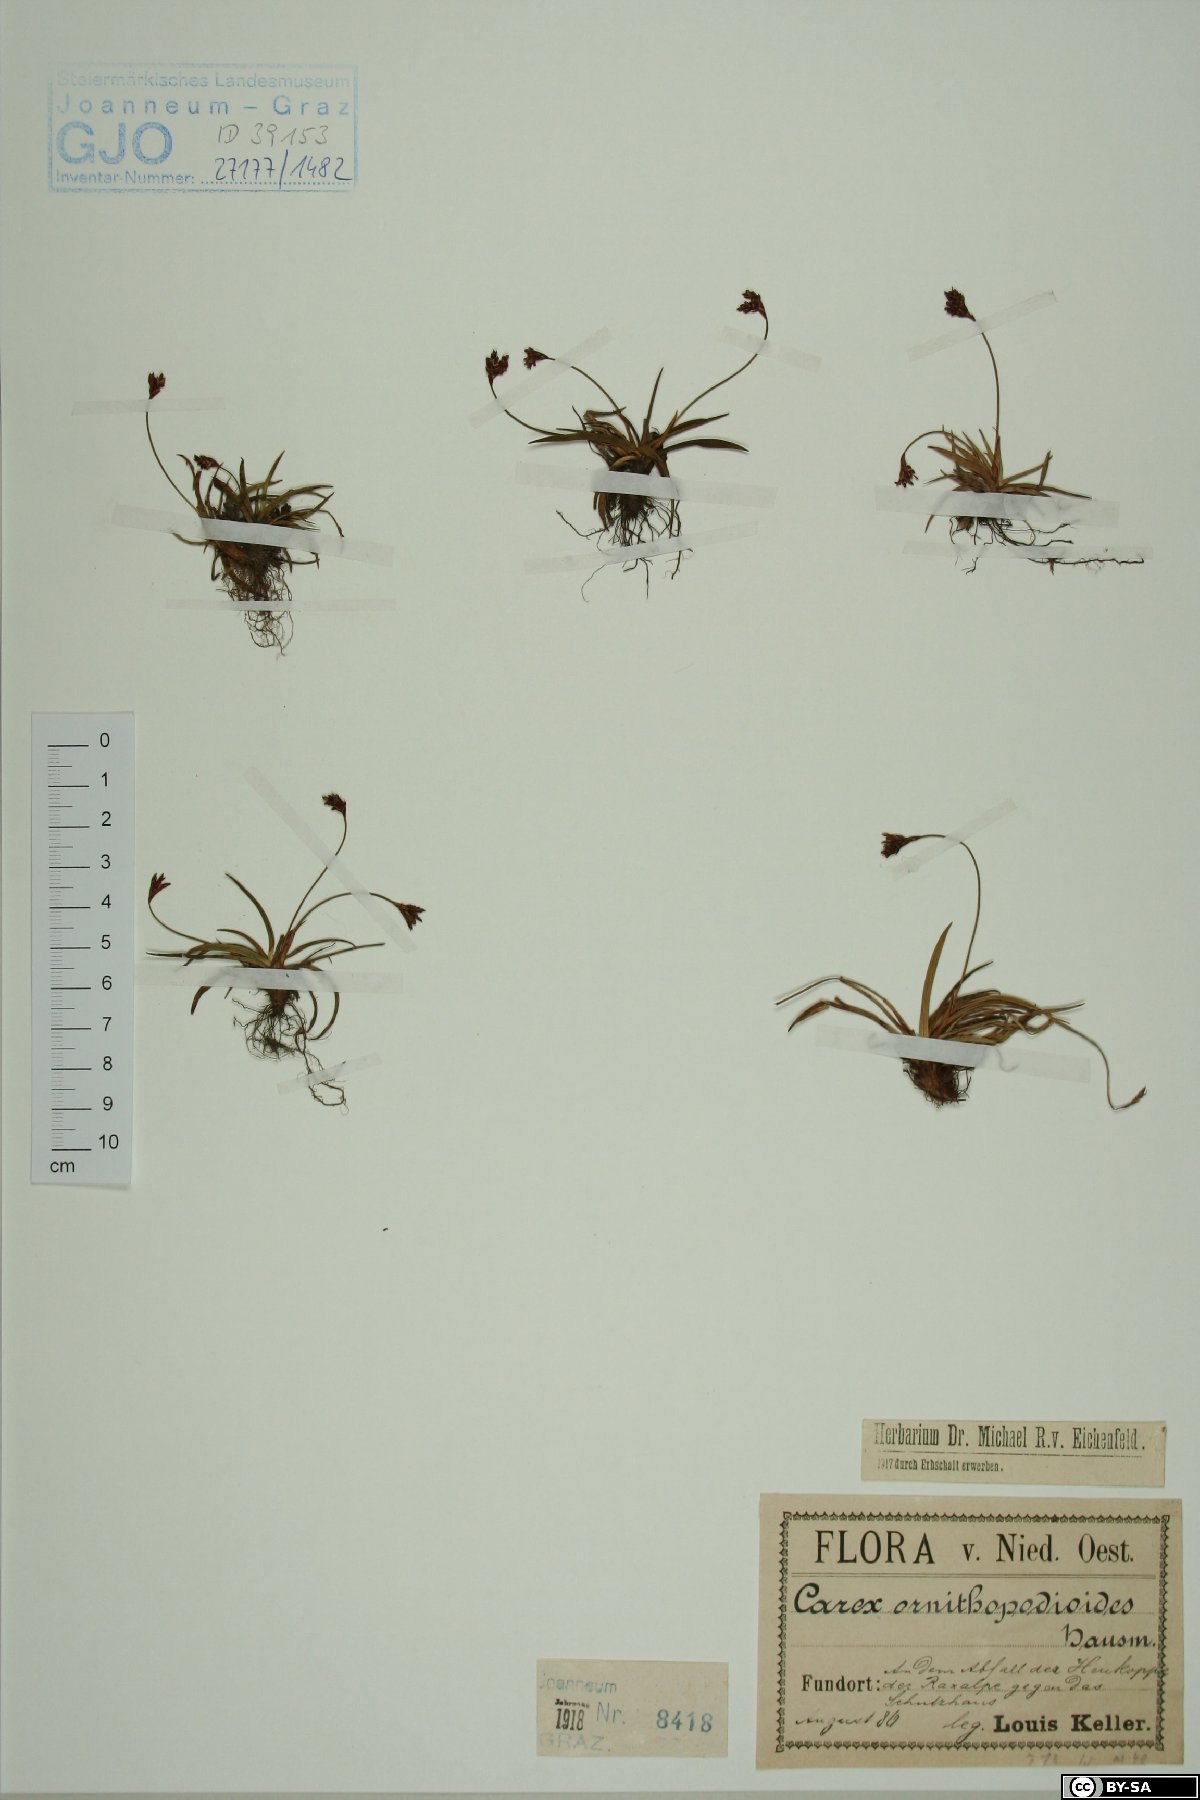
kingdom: Plantae
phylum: Tracheophyta
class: Liliopsida
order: Poales
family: Cyperaceae
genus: Carex
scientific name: Carex ornithopoda
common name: Bird's-foot sedge
